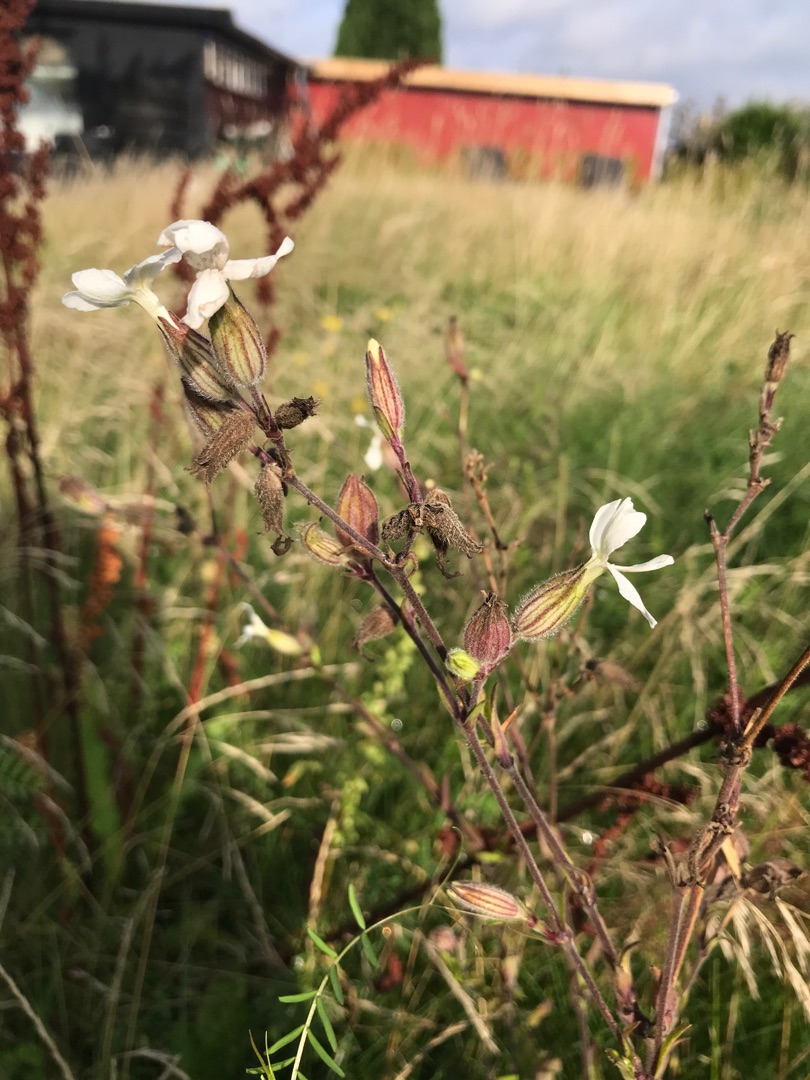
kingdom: Plantae
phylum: Tracheophyta
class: Magnoliopsida
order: Caryophyllales
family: Caryophyllaceae
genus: Silene
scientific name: Silene latifolia
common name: Aftenpragtstjerne
